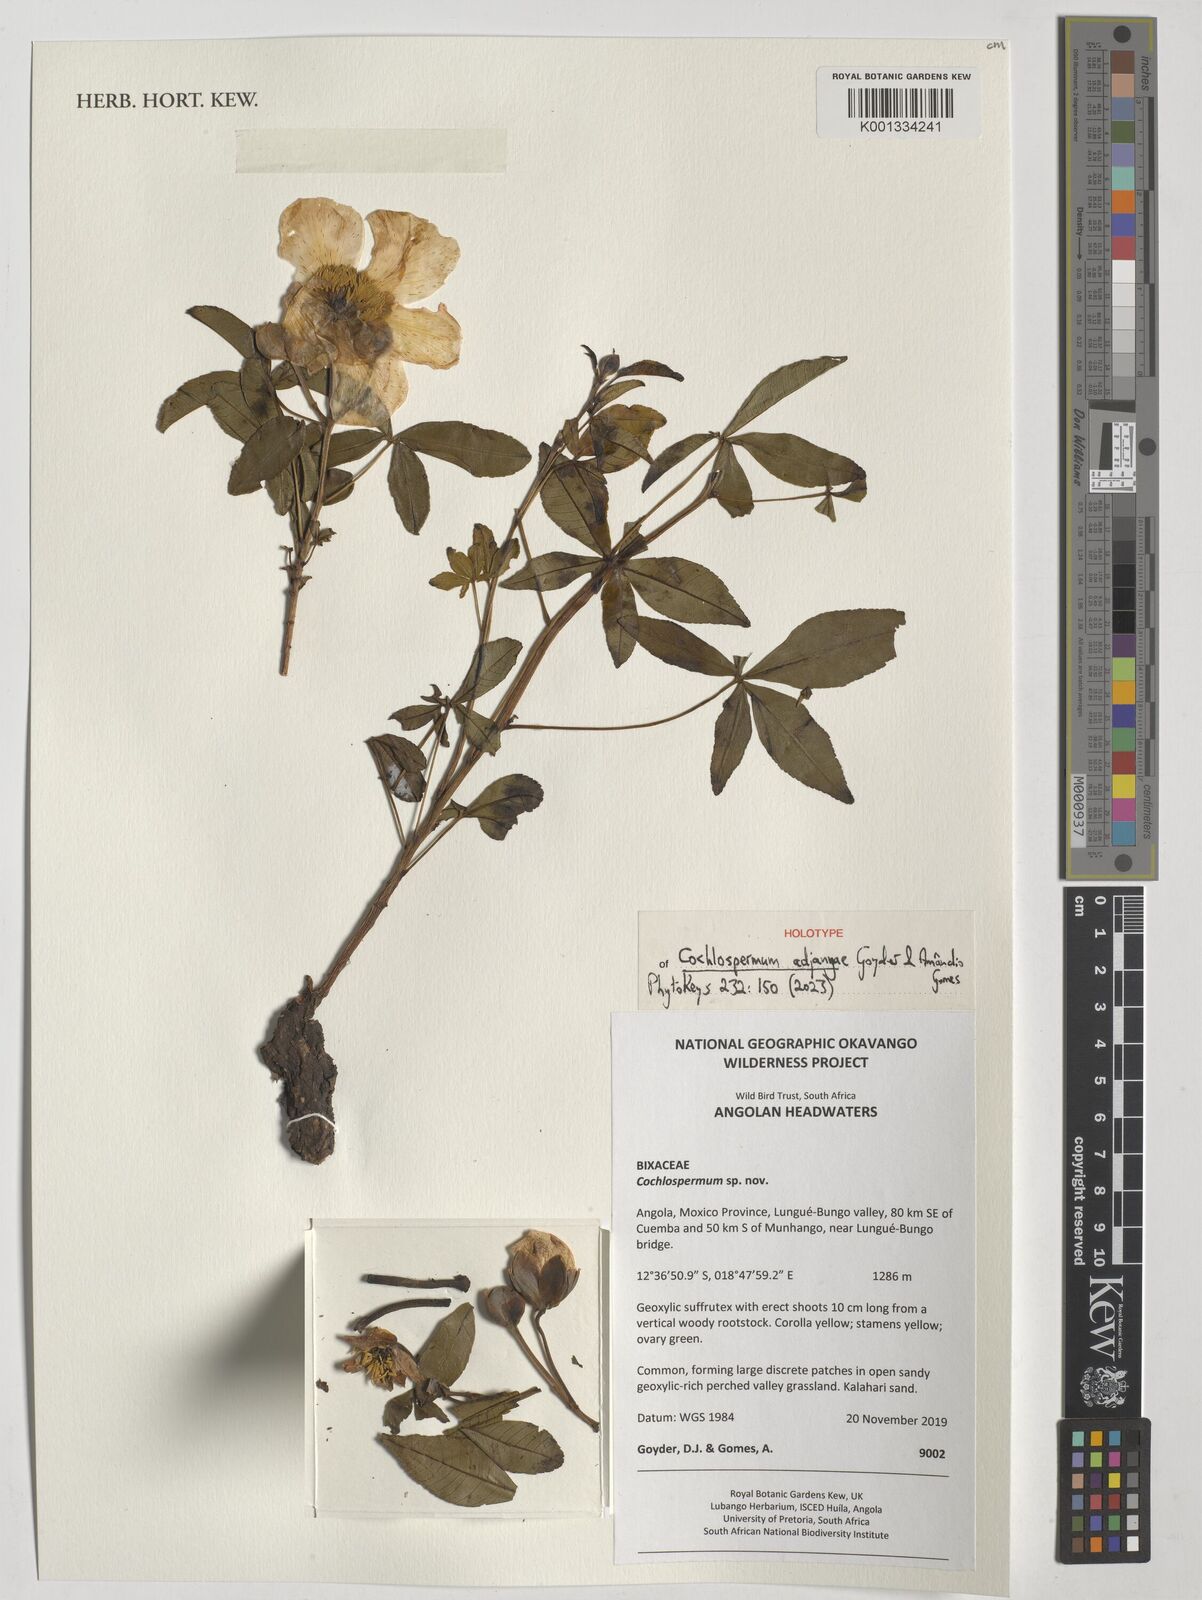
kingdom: Plantae
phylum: Tracheophyta
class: Magnoliopsida
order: Malvales
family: Cochlospermaceae
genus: Cochlospermum
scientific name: Cochlospermum
